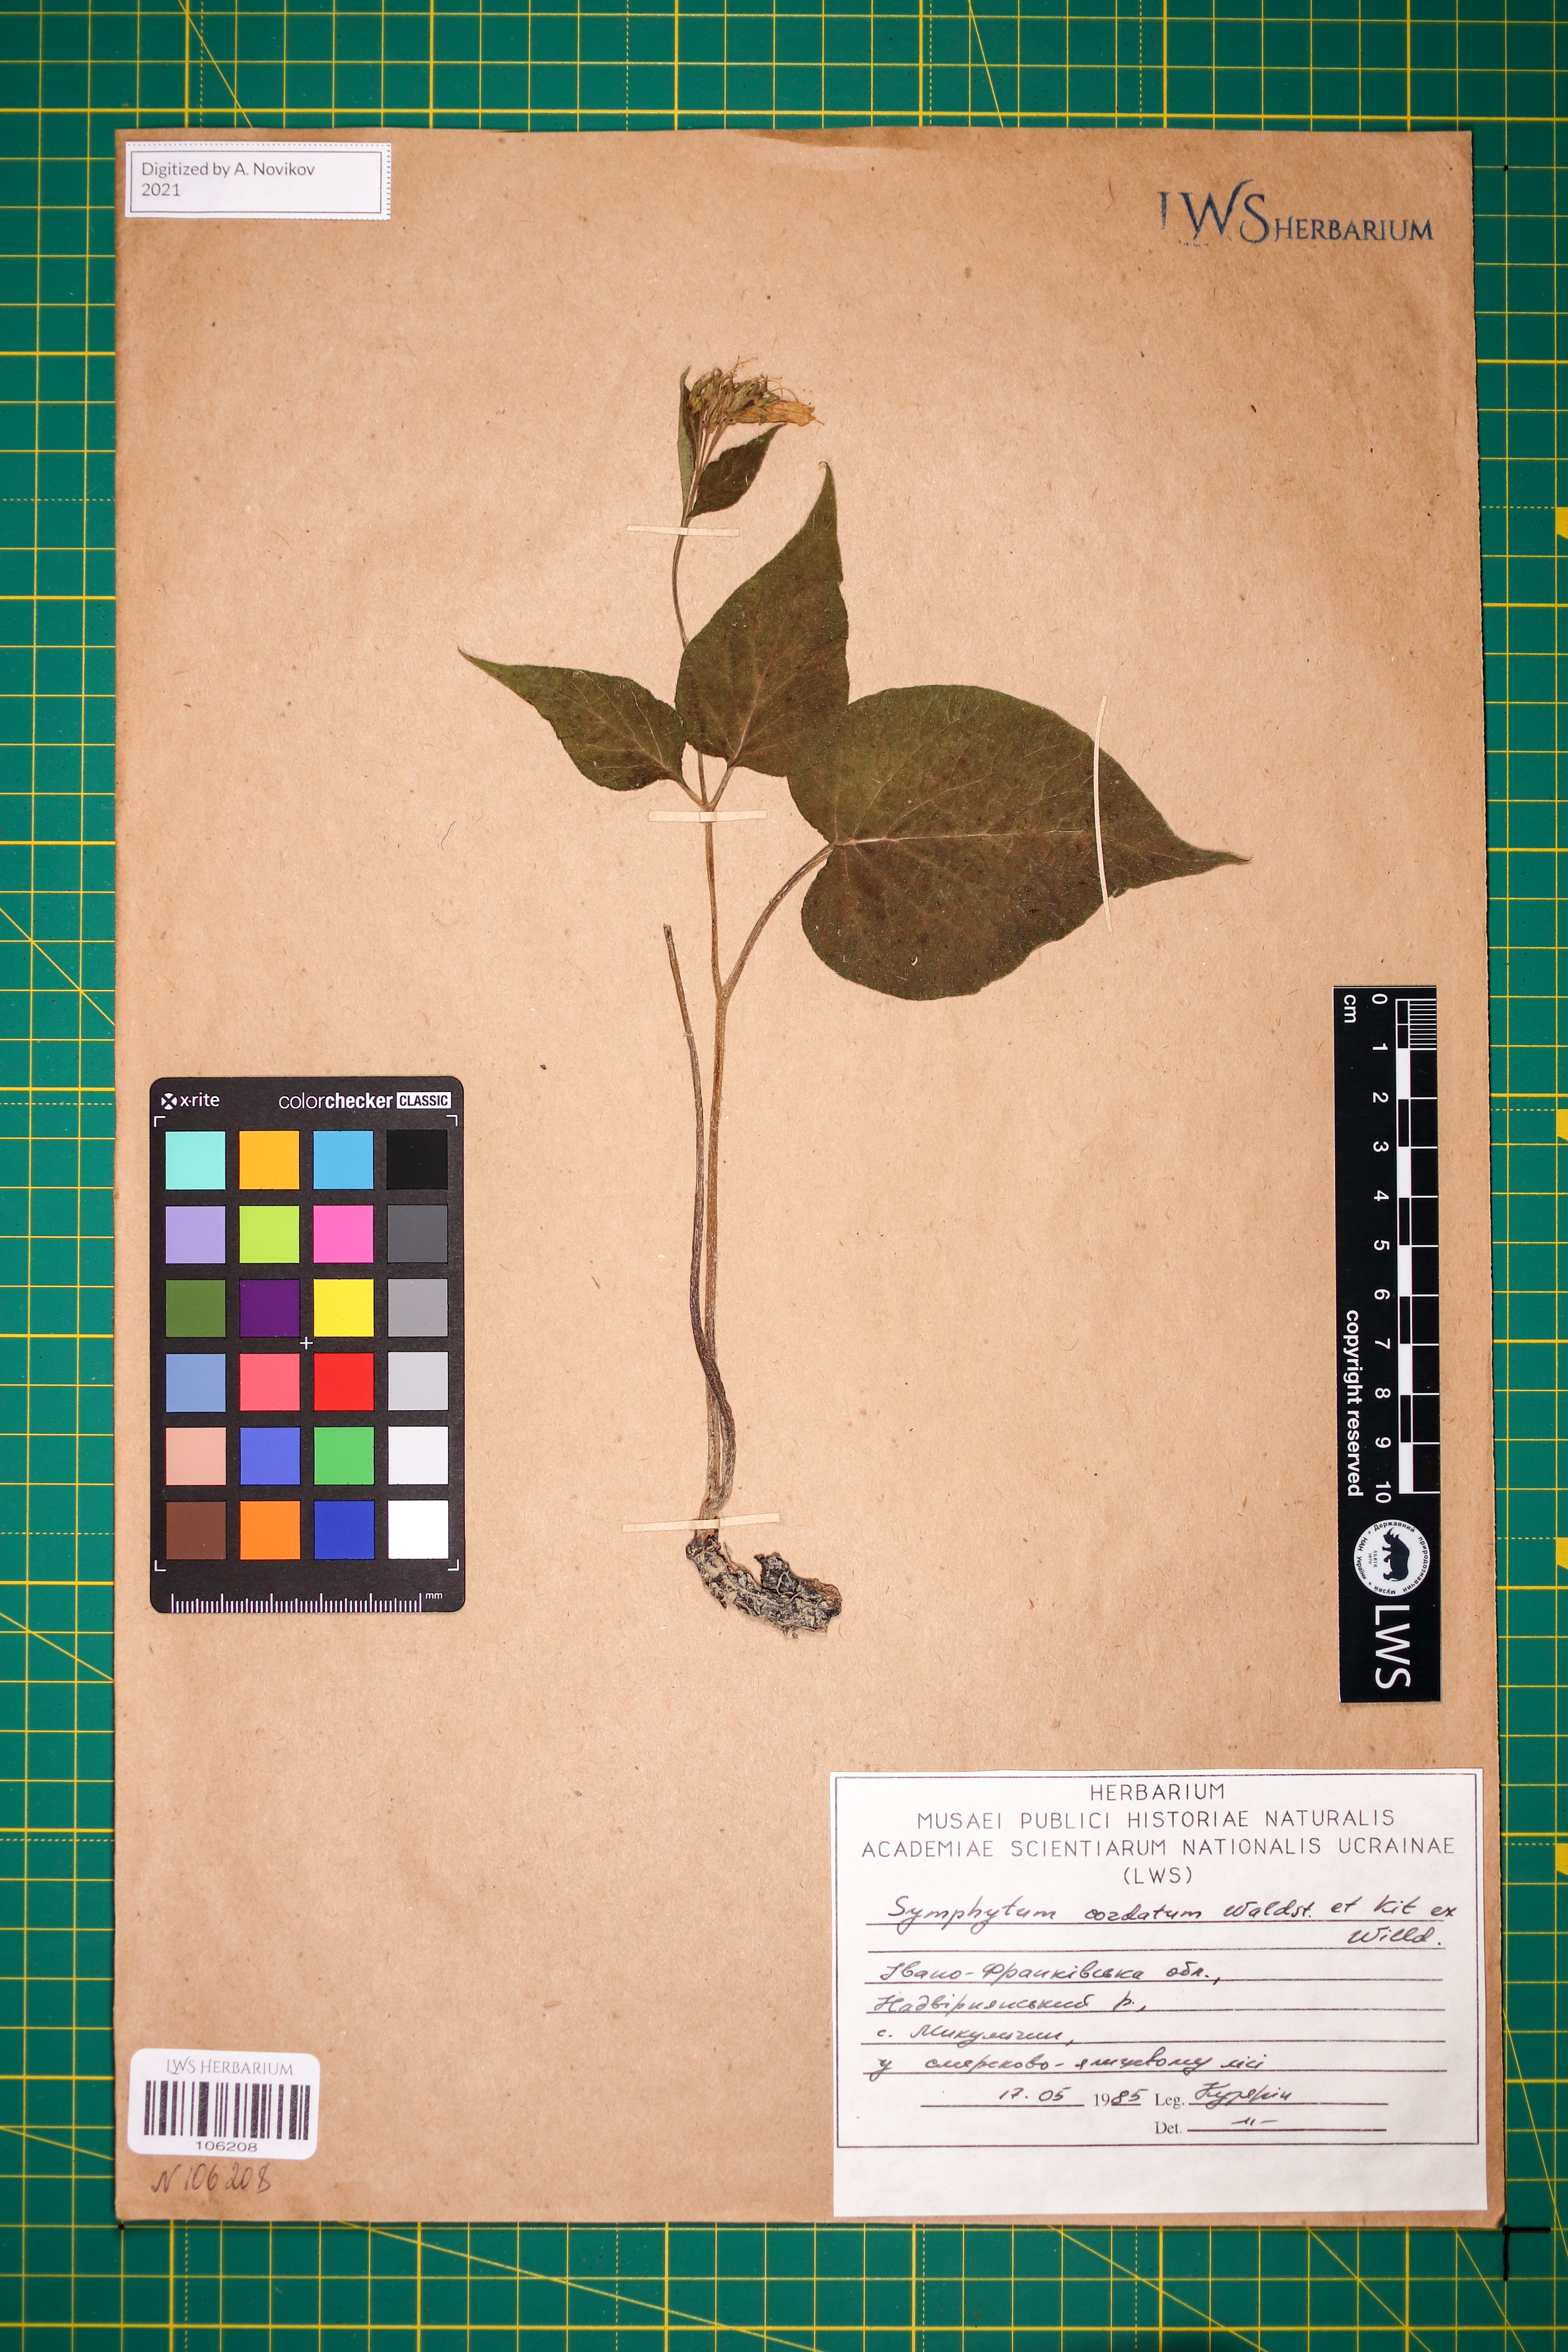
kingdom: Plantae
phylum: Tracheophyta
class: Magnoliopsida
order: Boraginales
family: Boraginaceae
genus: Symphytum
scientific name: Symphytum cordatum
